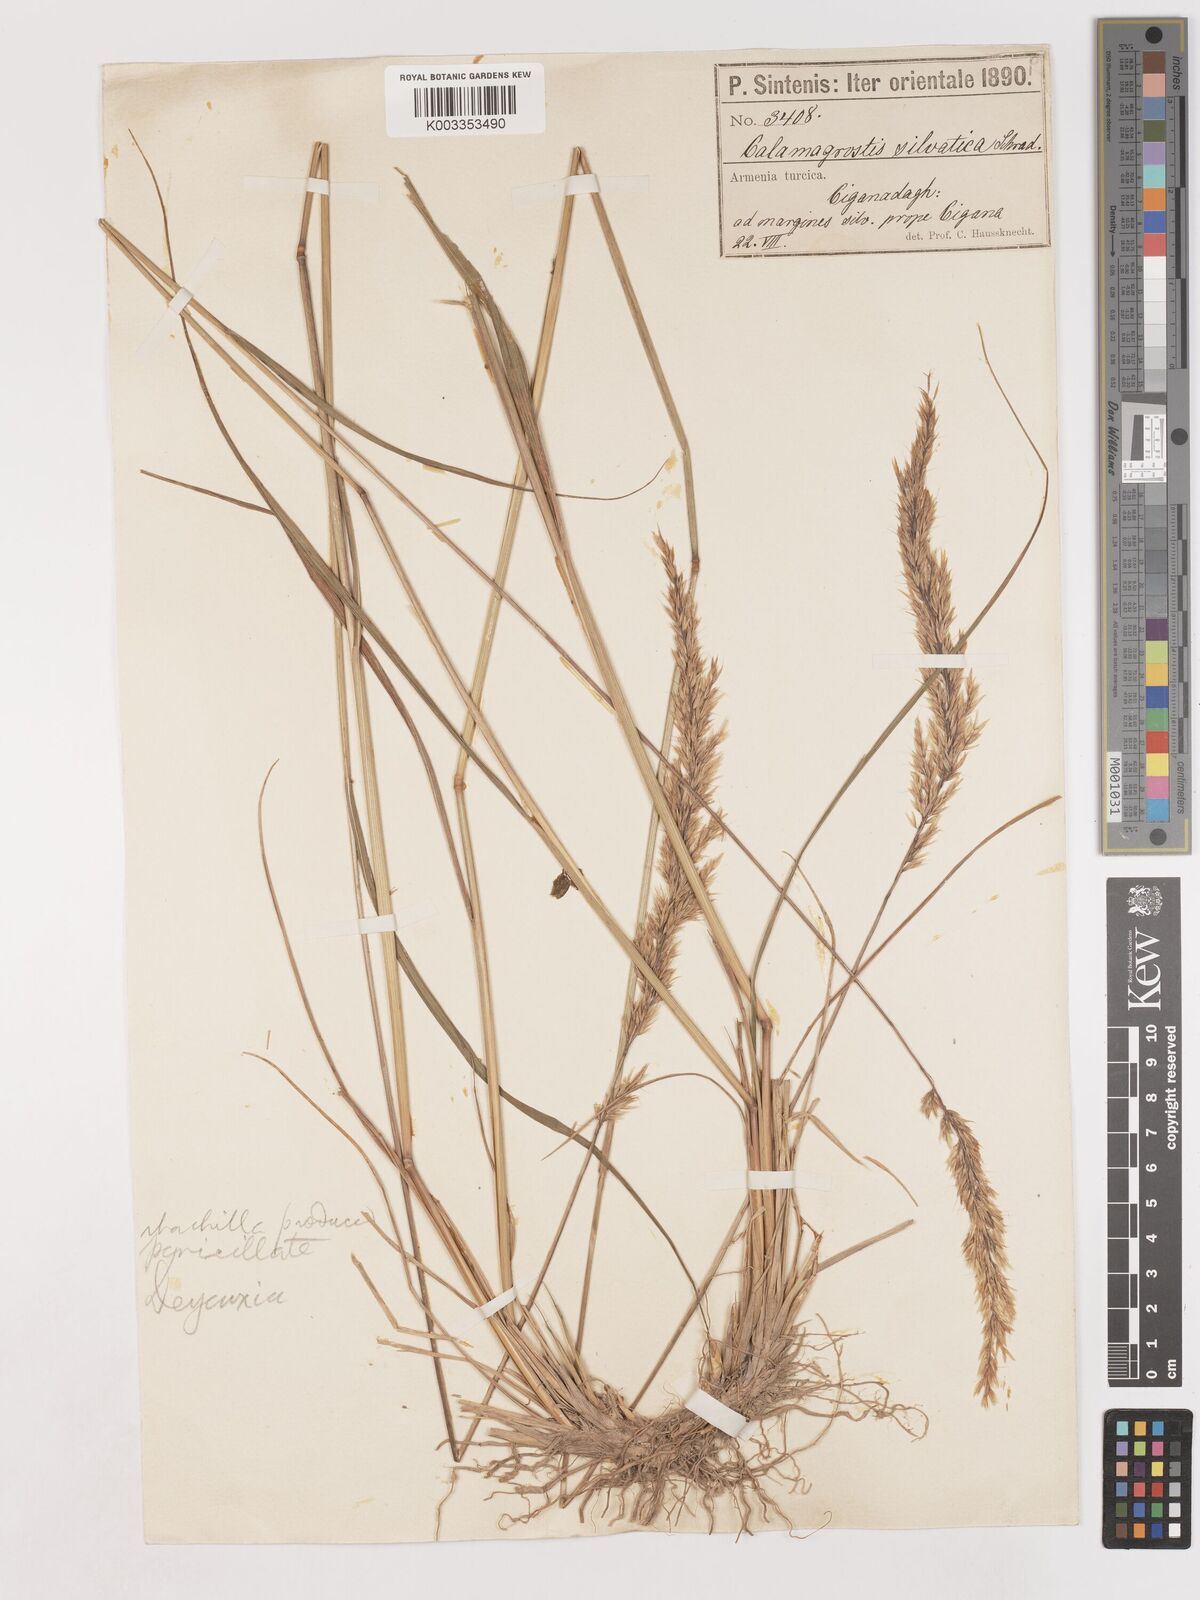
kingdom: Plantae
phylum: Tracheophyta
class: Liliopsida
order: Poales
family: Poaceae
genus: Calamagrostis
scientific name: Calamagrostis
